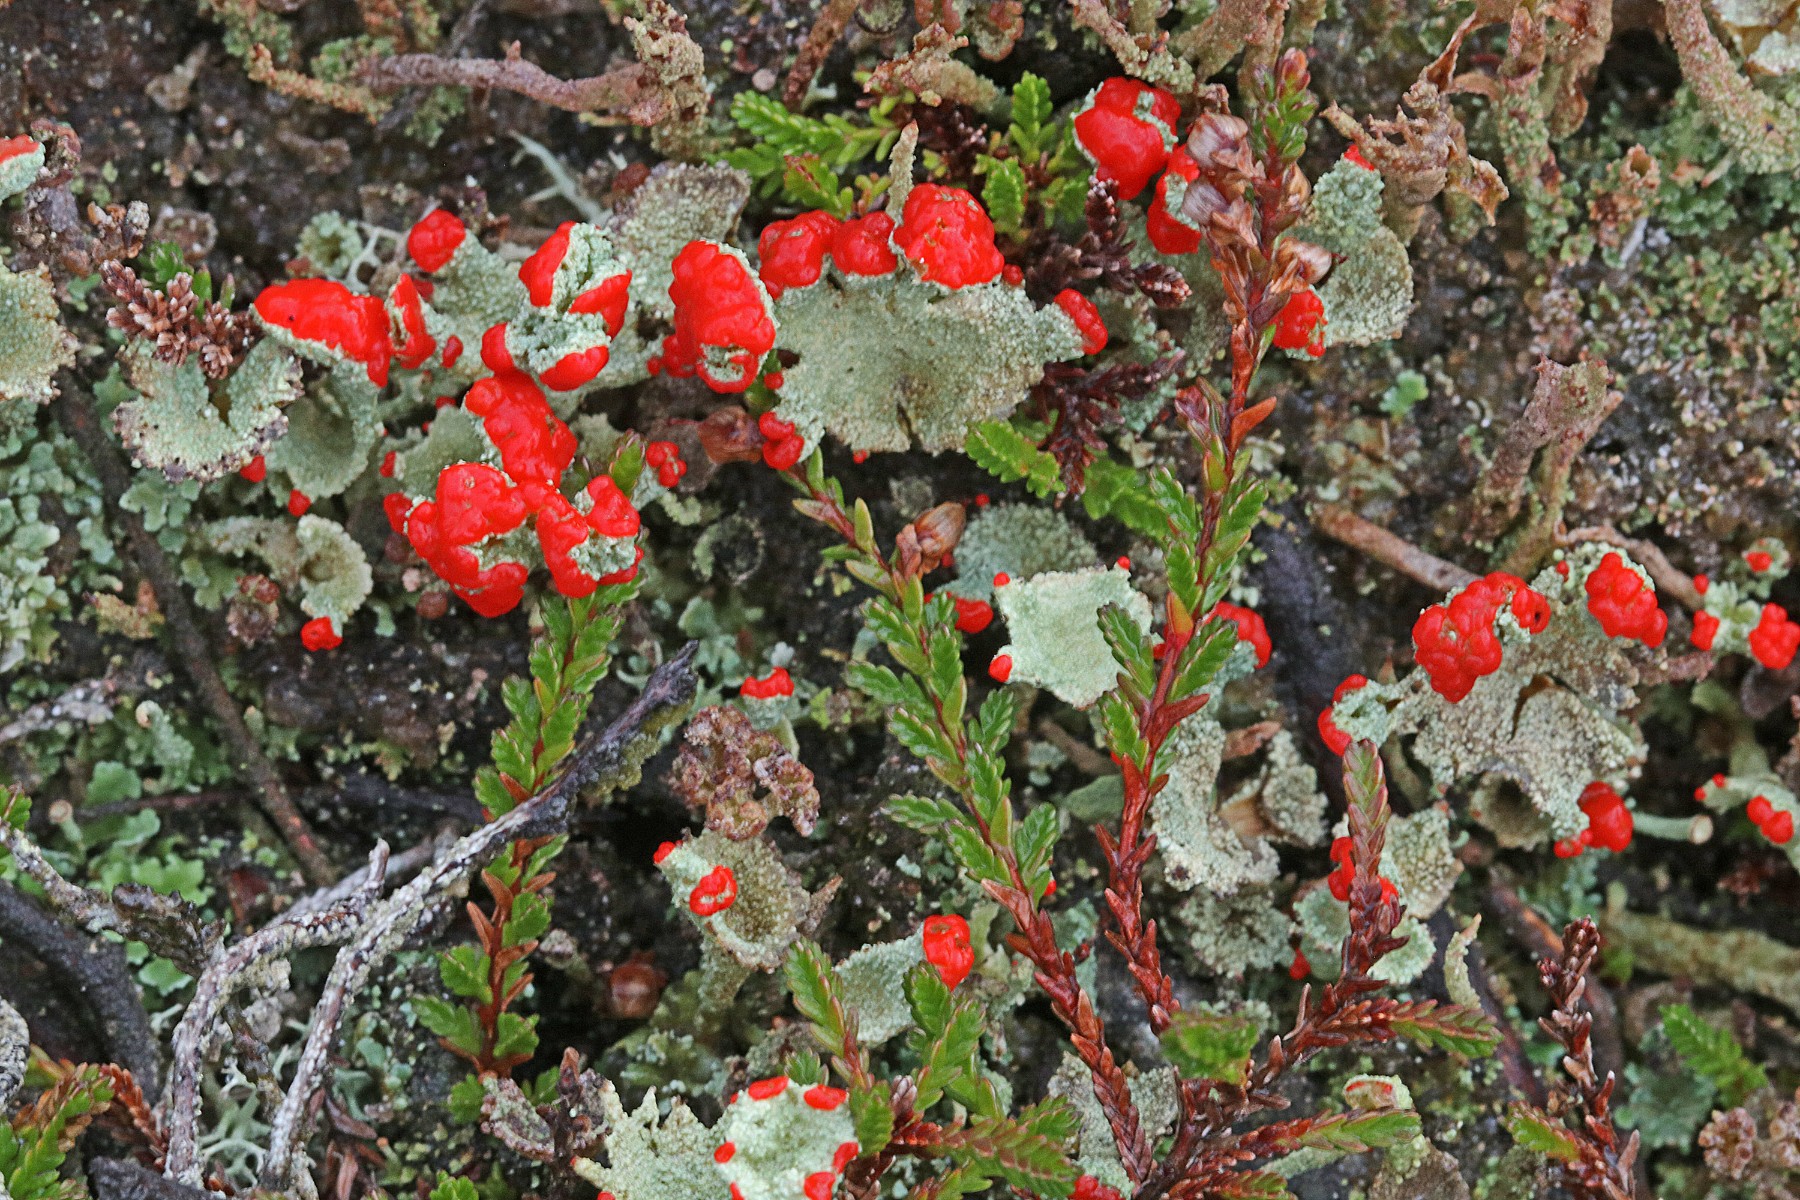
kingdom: Fungi
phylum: Ascomycota
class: Lecanoromycetes
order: Lecanorales
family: Cladoniaceae
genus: Cladonia
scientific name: Cladonia diversa
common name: rød bægerlav
